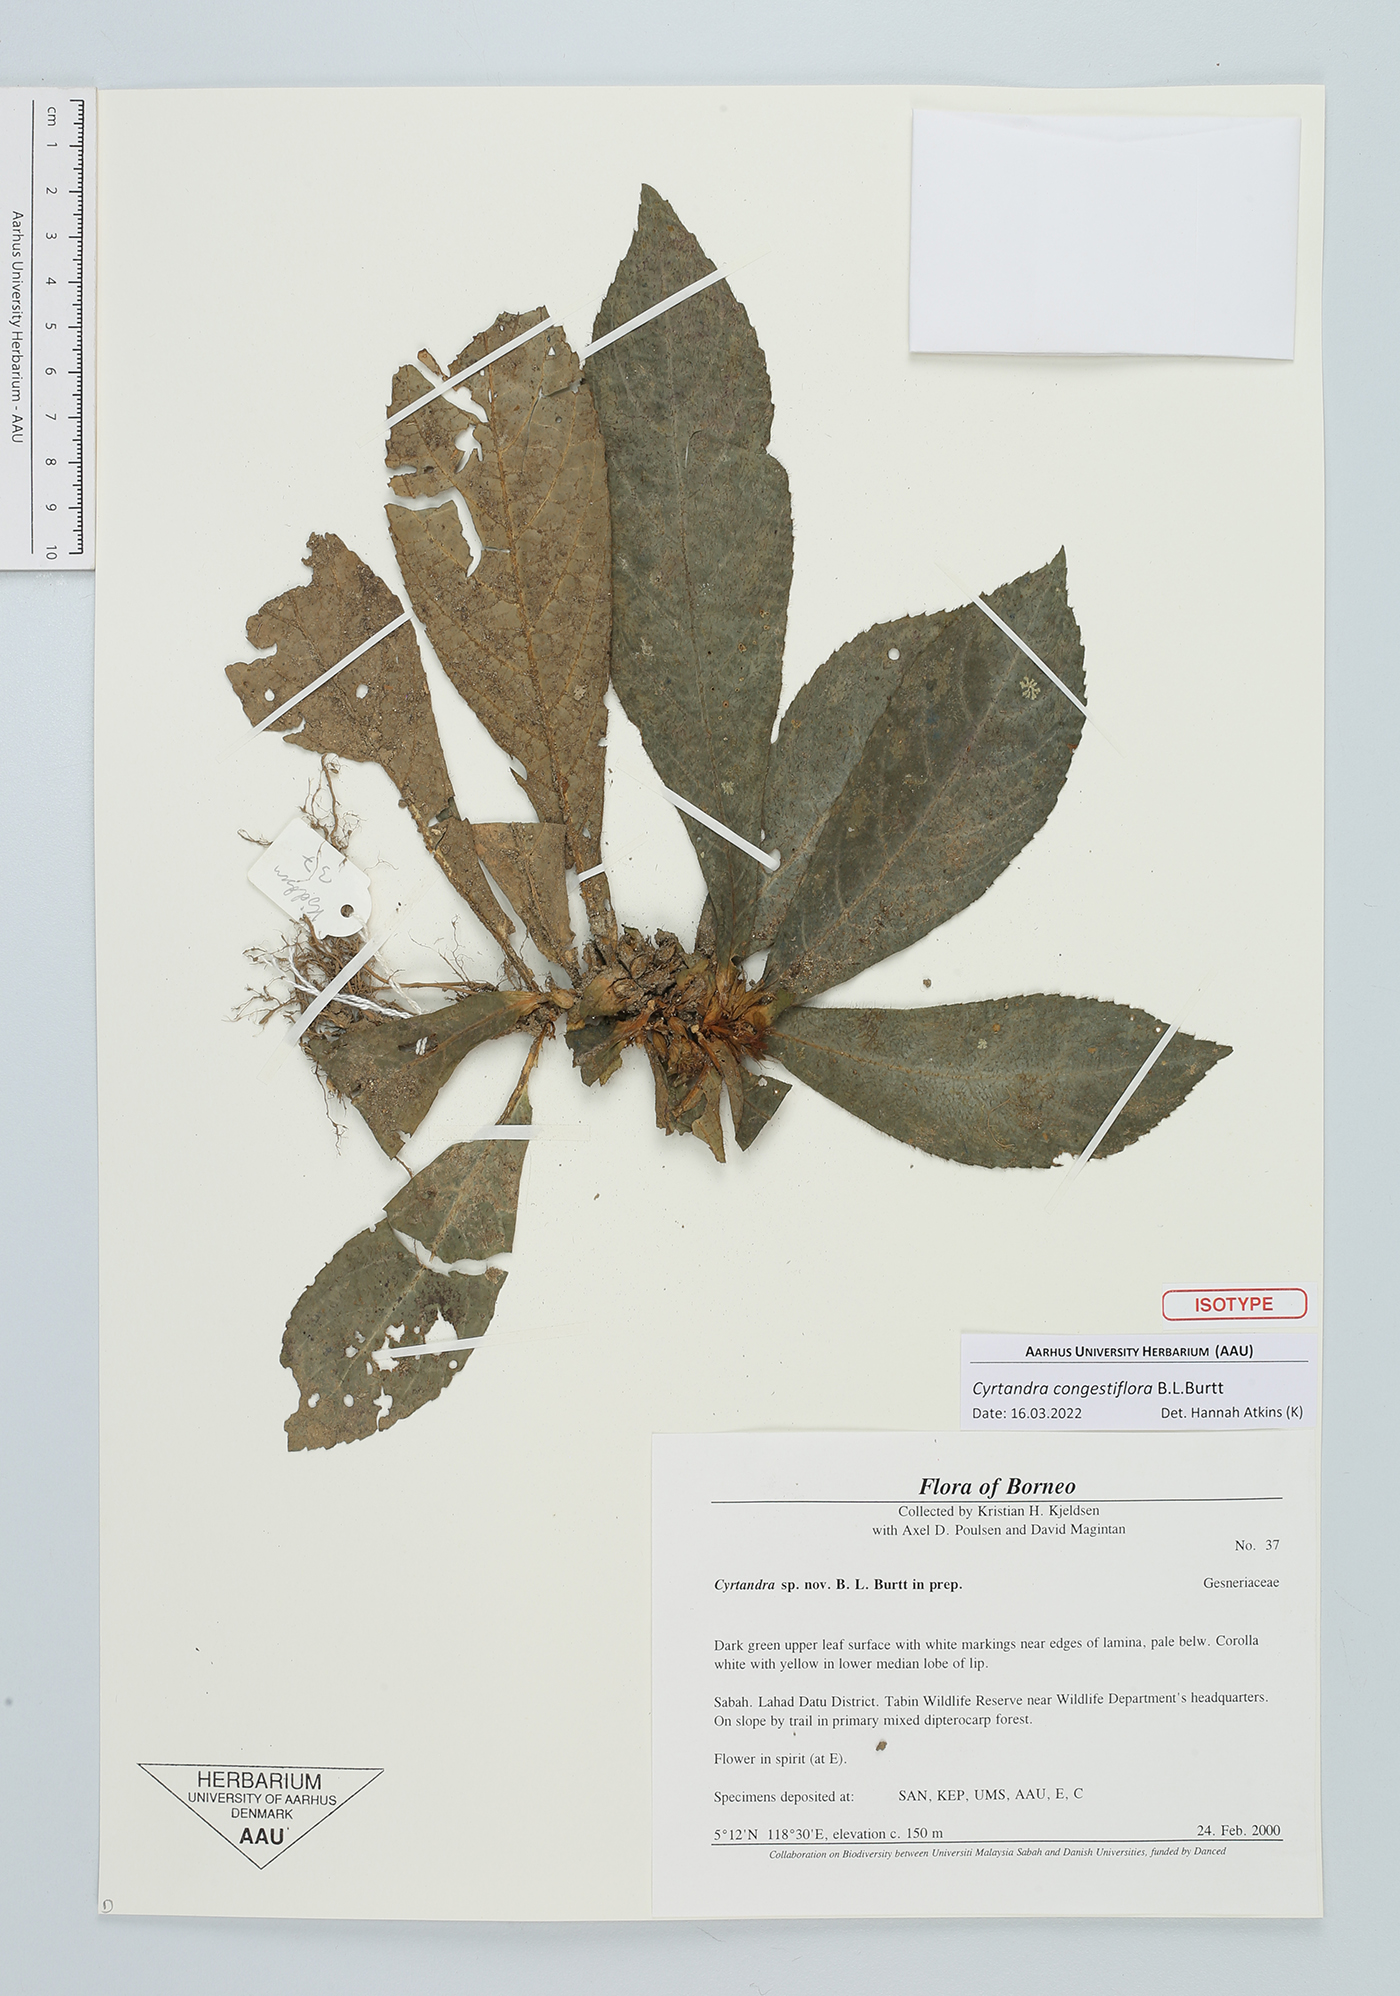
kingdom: Plantae
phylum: Tracheophyta
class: Magnoliopsida
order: Lamiales
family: Gesneriaceae
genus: Cyrtandra
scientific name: Cyrtandra congestiflora
